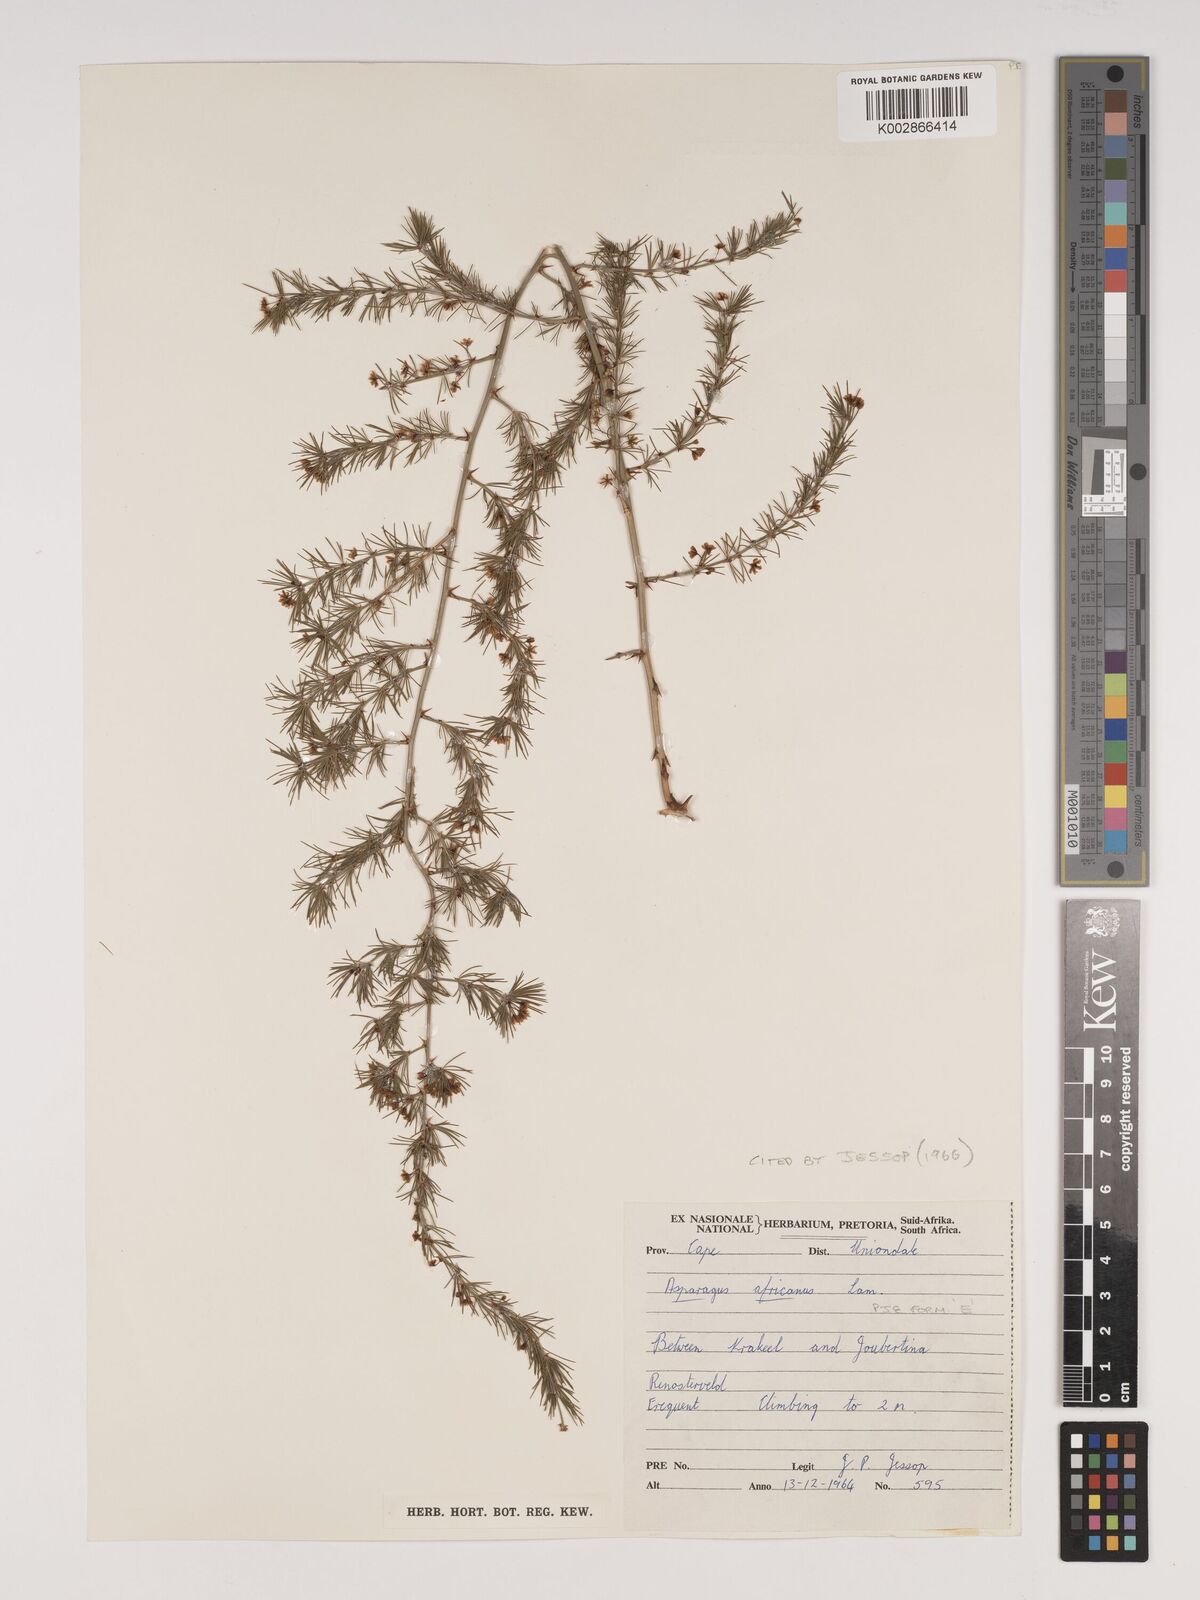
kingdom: Plantae
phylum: Tracheophyta
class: Liliopsida
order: Asparagales
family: Asparagaceae
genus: Asparagus
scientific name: Asparagus africanus
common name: Asparagus-fern
